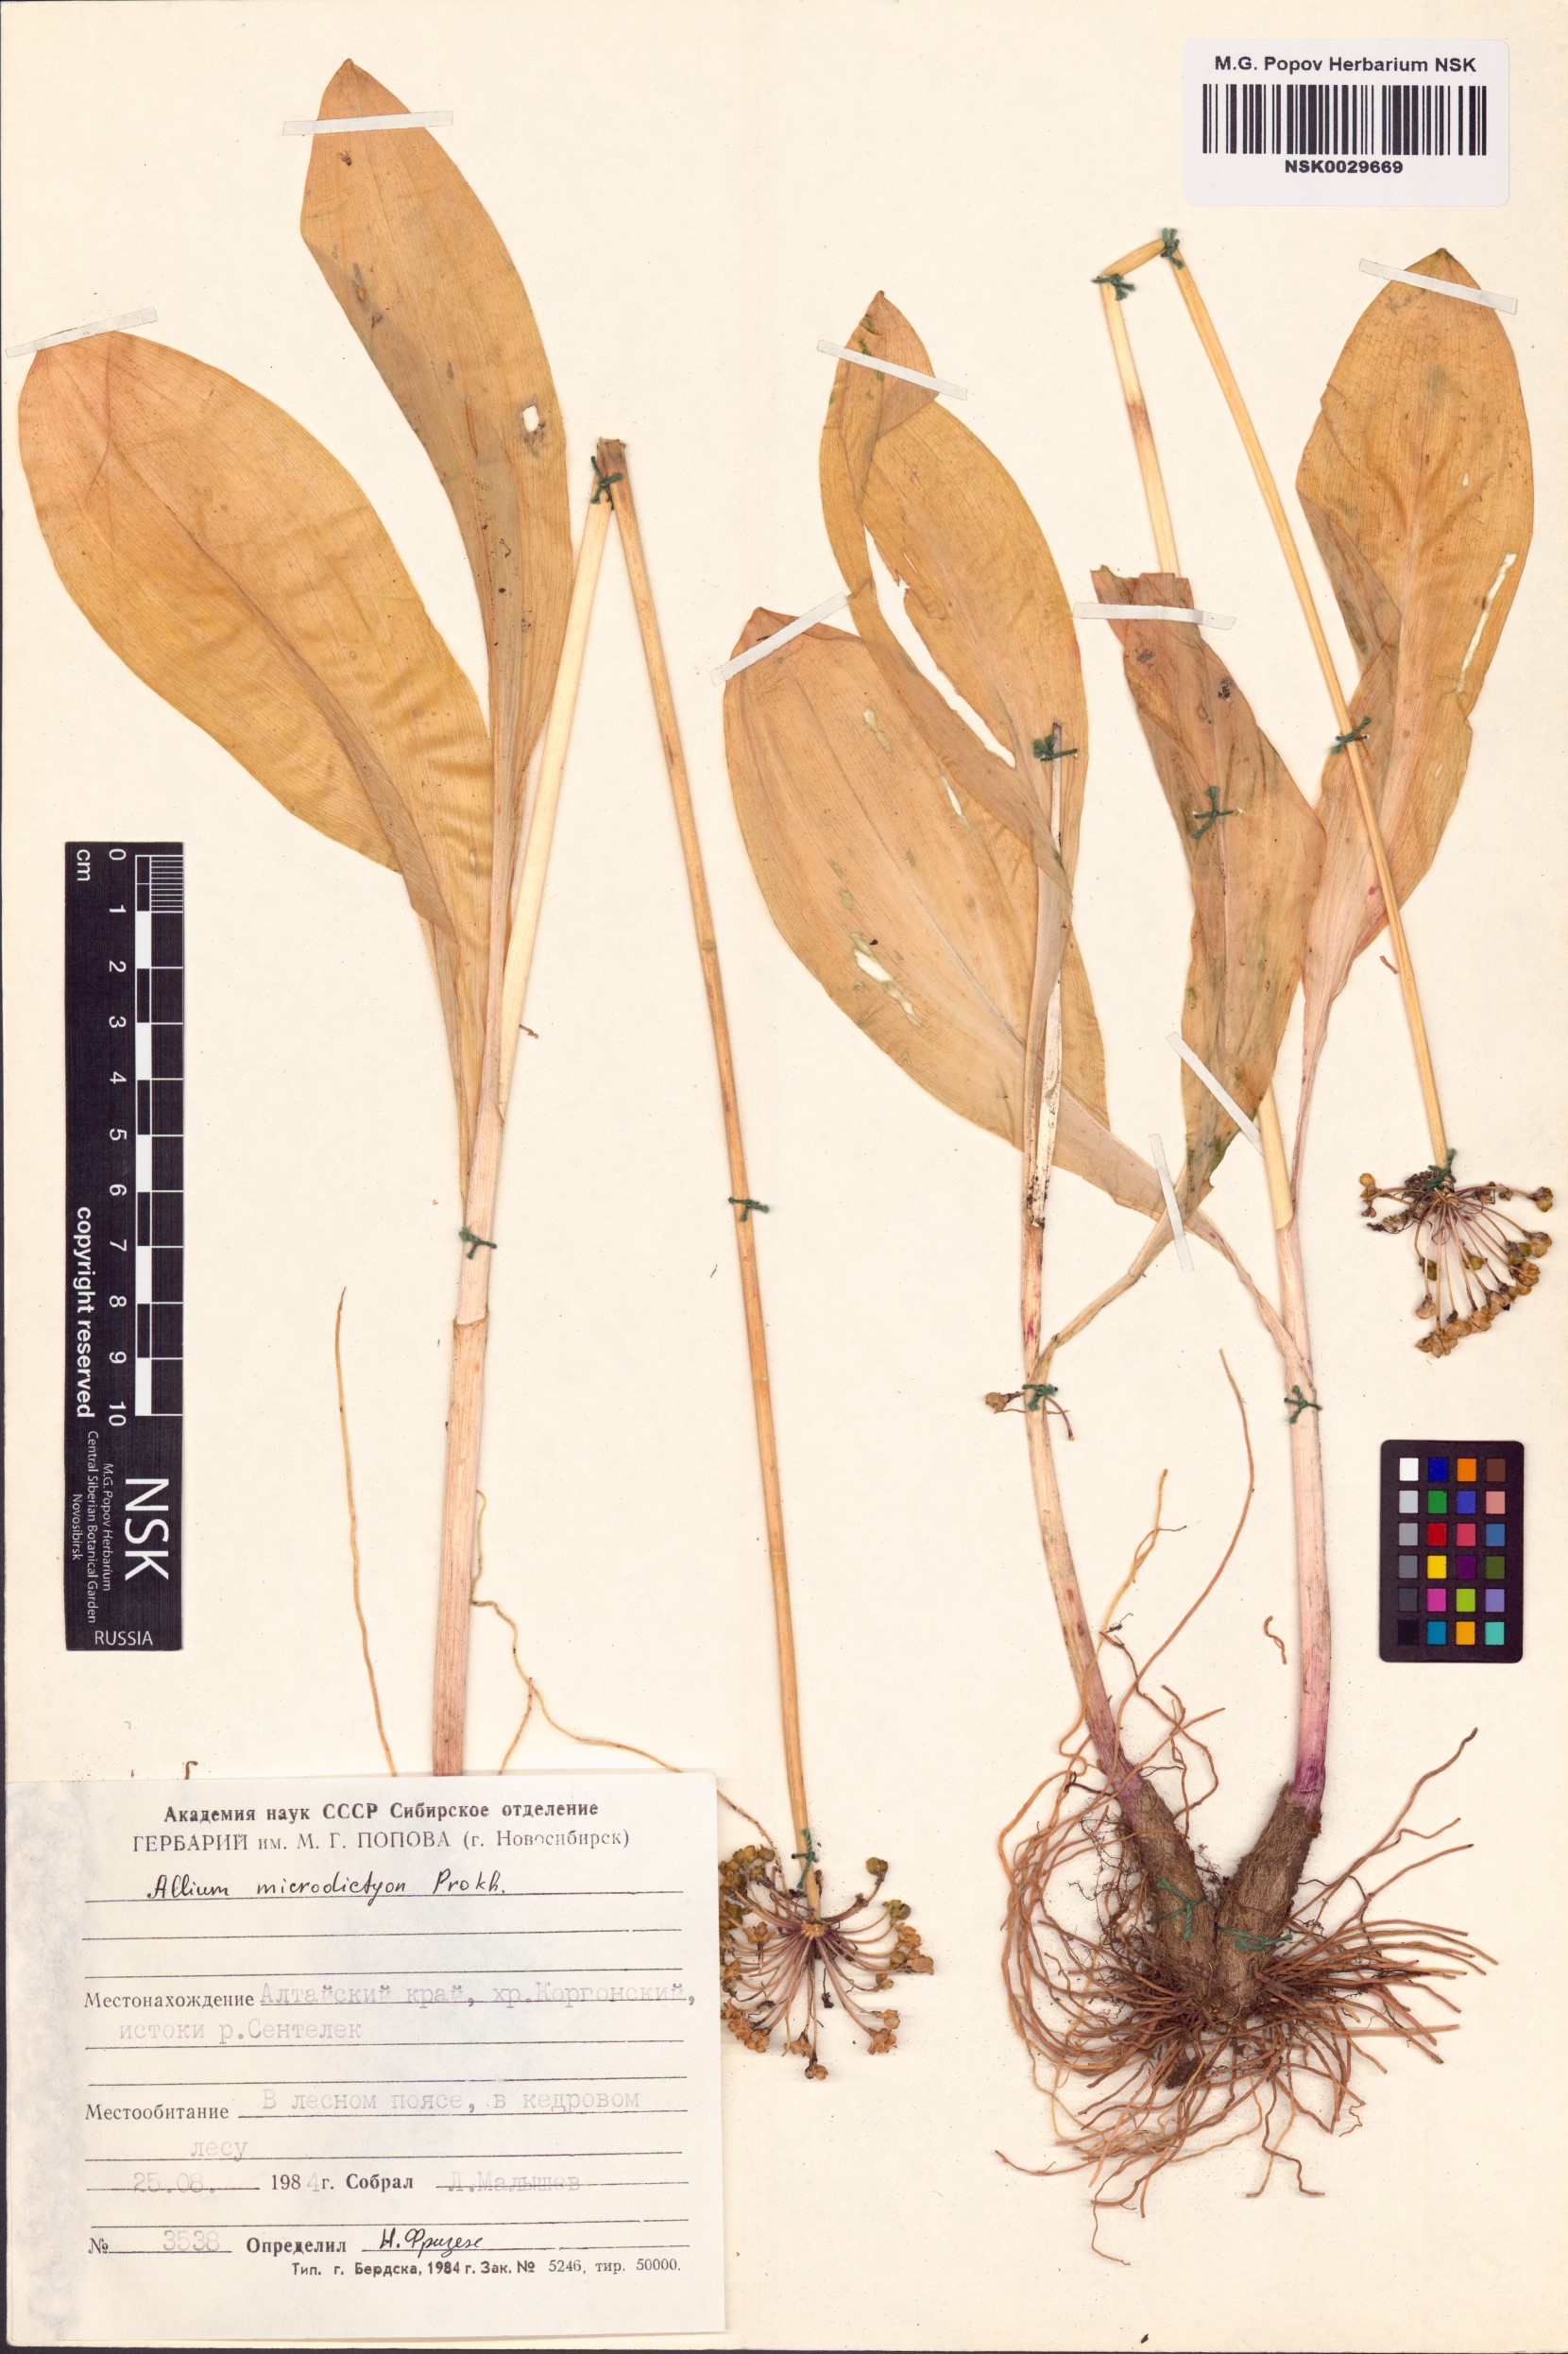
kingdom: Plantae
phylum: Tracheophyta
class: Liliopsida
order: Asparagales
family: Amaryllidaceae
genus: Allium
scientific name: Allium microdictyon
